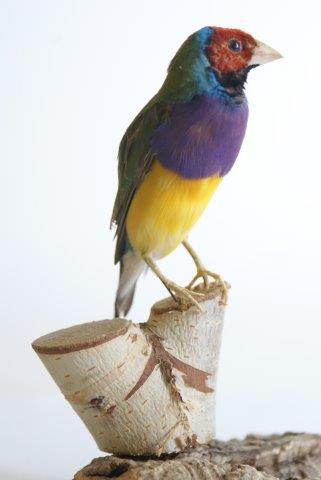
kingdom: Animalia
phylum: Chordata
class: Aves
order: Passeriformes
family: Estrildidae
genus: Erythrura
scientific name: Erythrura gouldiae
